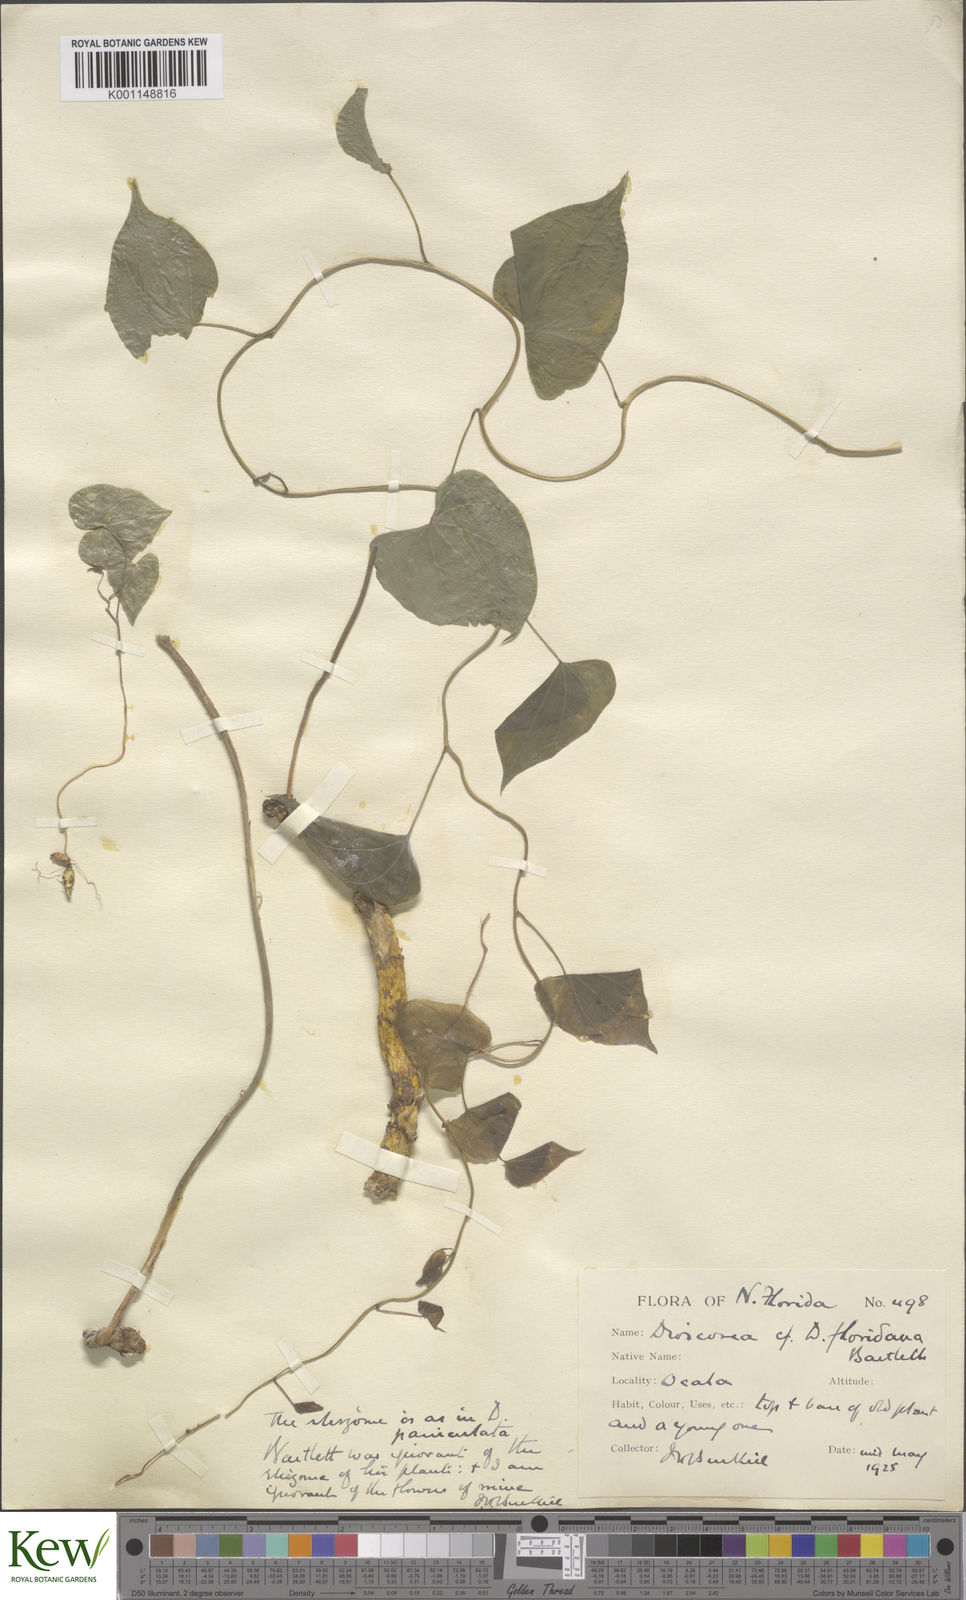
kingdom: Plantae
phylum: Tracheophyta
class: Liliopsida
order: Dioscoreales
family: Dioscoreaceae
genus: Dioscorea
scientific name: Dioscorea villosa
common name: Wild yam
